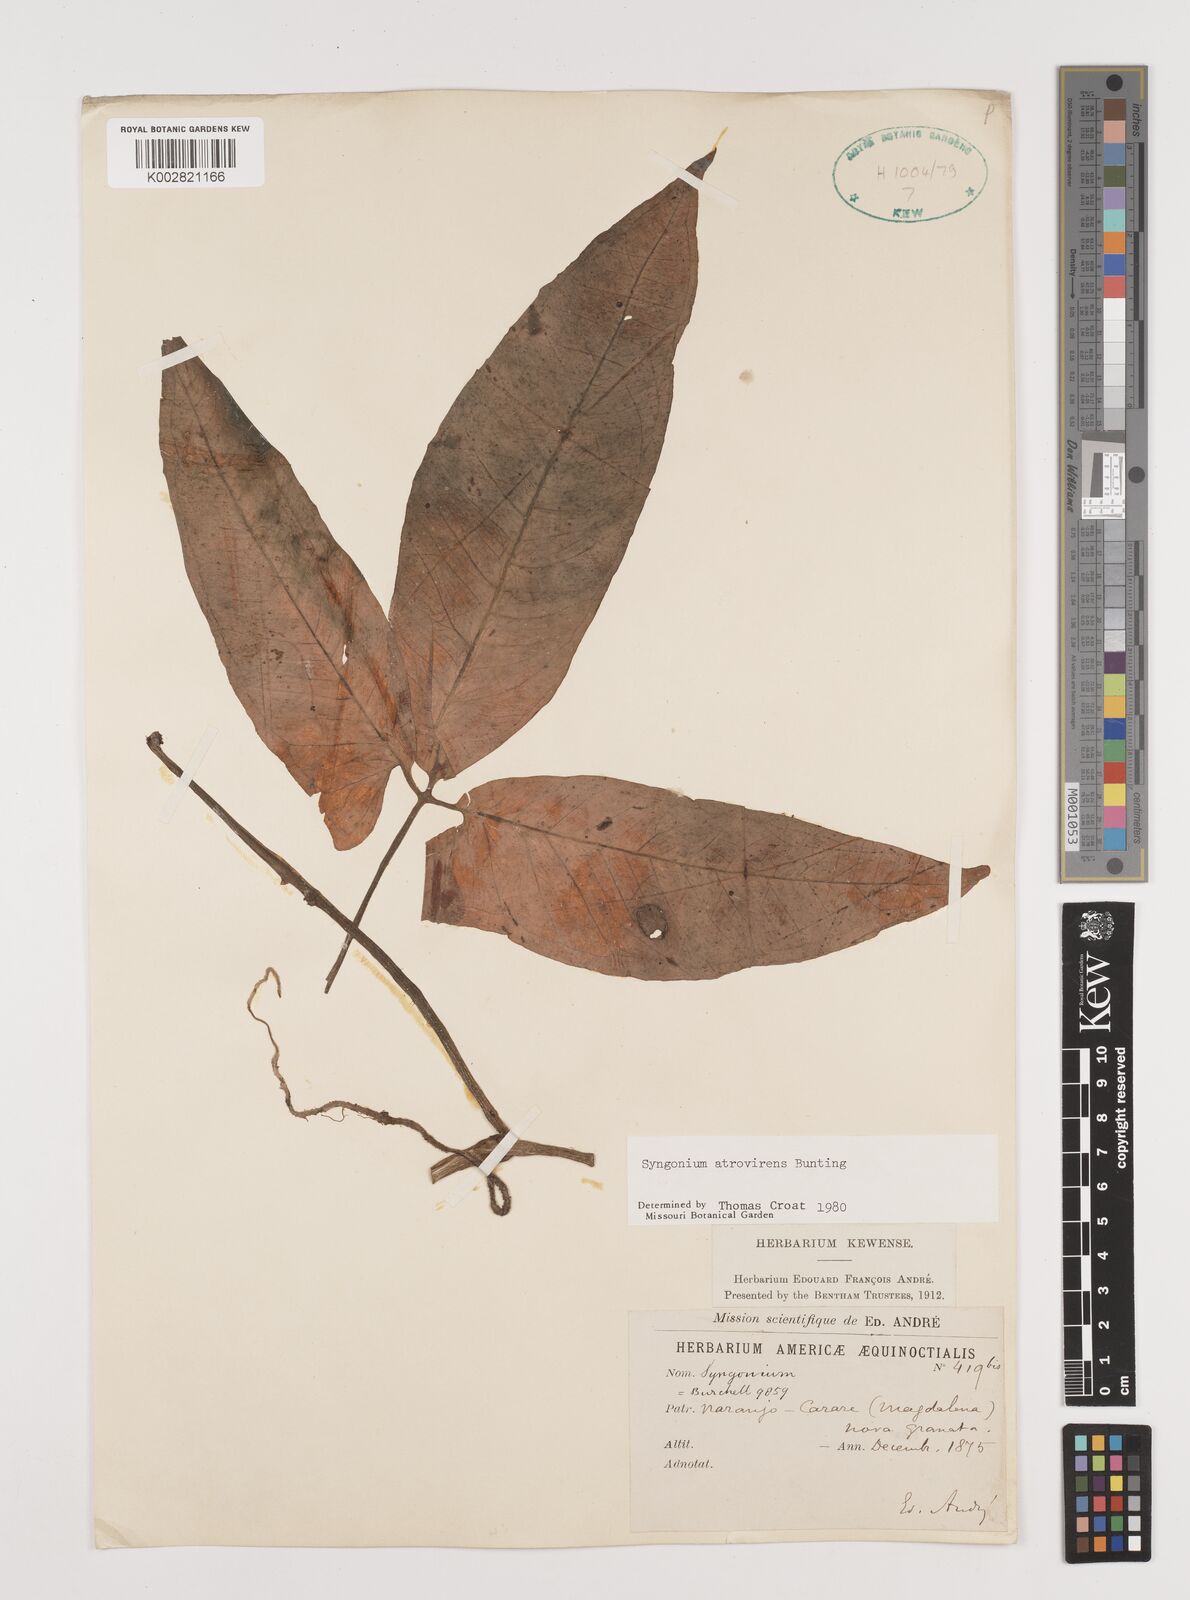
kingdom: Plantae
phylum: Tracheophyta
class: Liliopsida
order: Alismatales
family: Araceae
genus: Syngonium
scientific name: Syngonium yurimaguense
